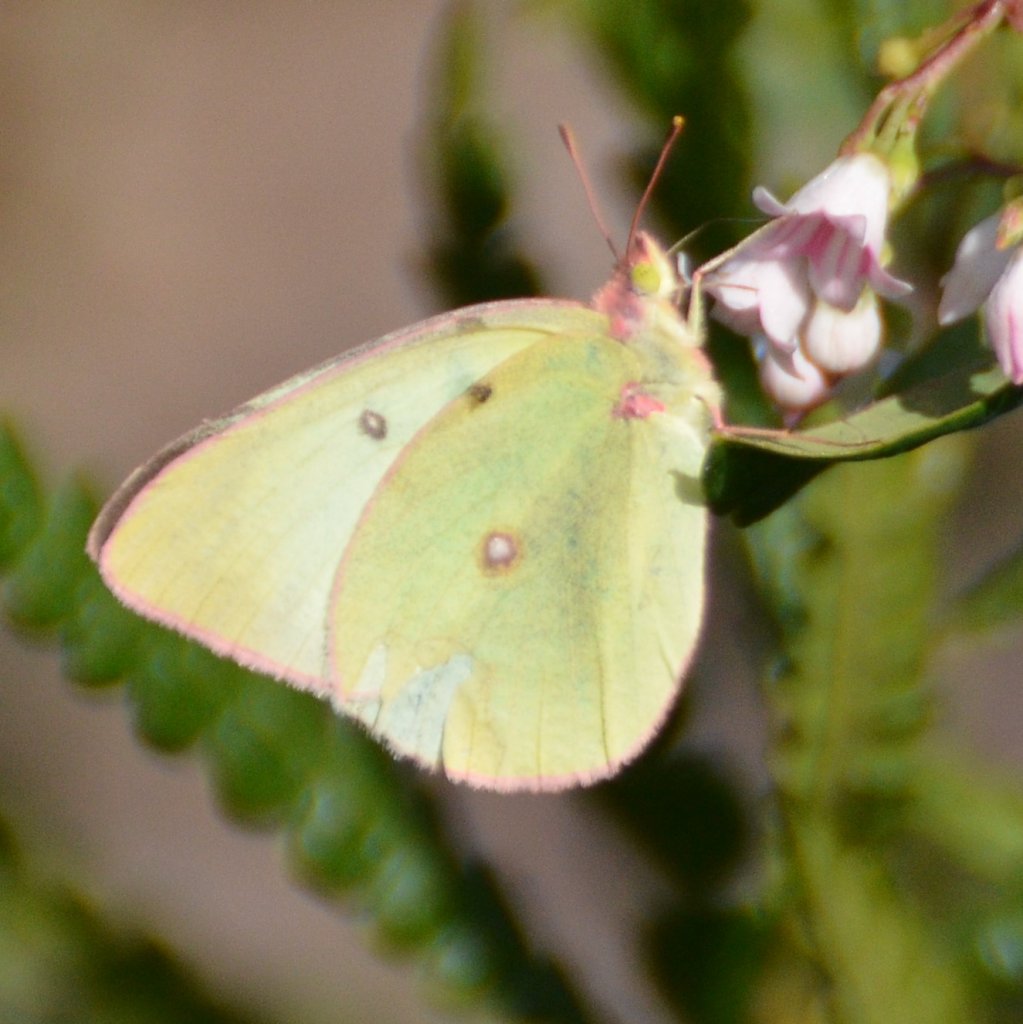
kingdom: Animalia
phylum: Arthropoda
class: Insecta
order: Lepidoptera
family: Pieridae
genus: Colias
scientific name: Colias interior
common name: Pink-edged Sulphur
